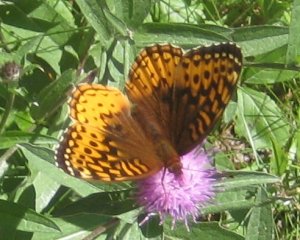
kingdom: Animalia
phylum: Arthropoda
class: Insecta
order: Lepidoptera
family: Nymphalidae
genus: Speyeria
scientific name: Speyeria cybele
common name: Great Spangled Fritillary
